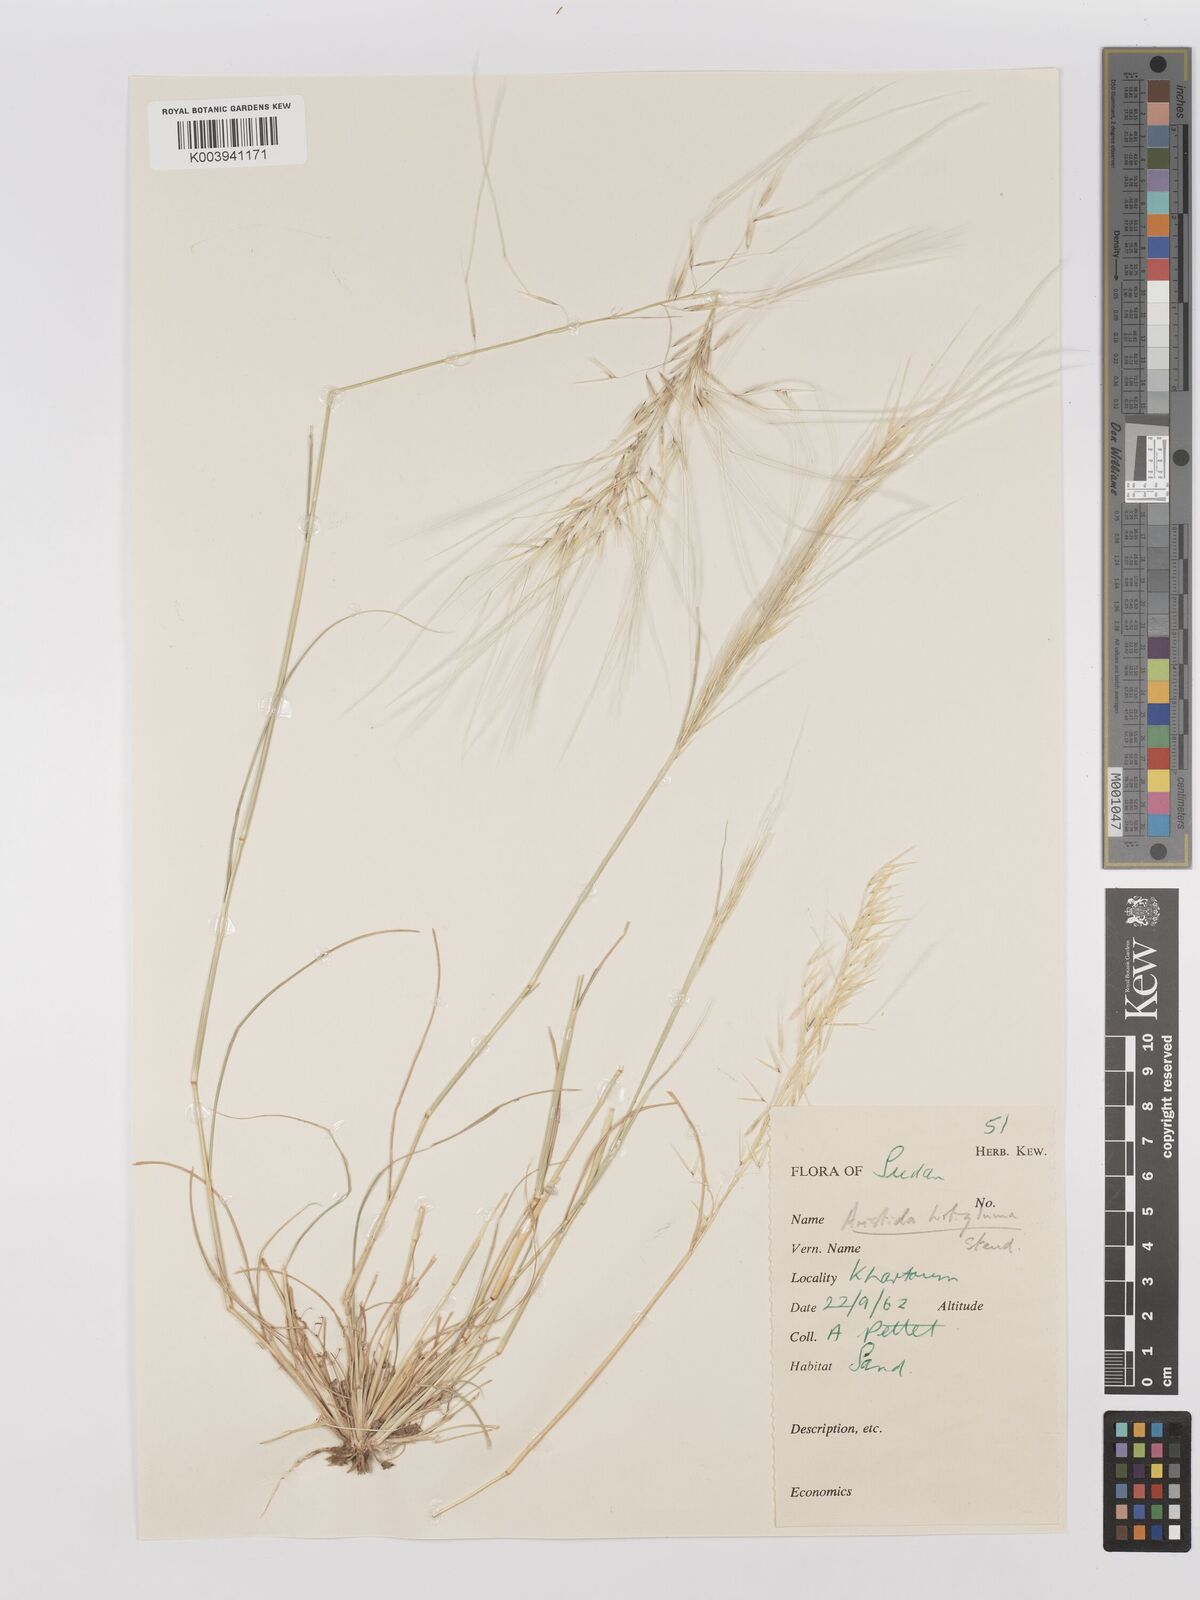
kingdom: Plantae
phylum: Tracheophyta
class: Liliopsida
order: Poales
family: Poaceae
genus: Stipagrostis
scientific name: Stipagrostis hirtigluma
